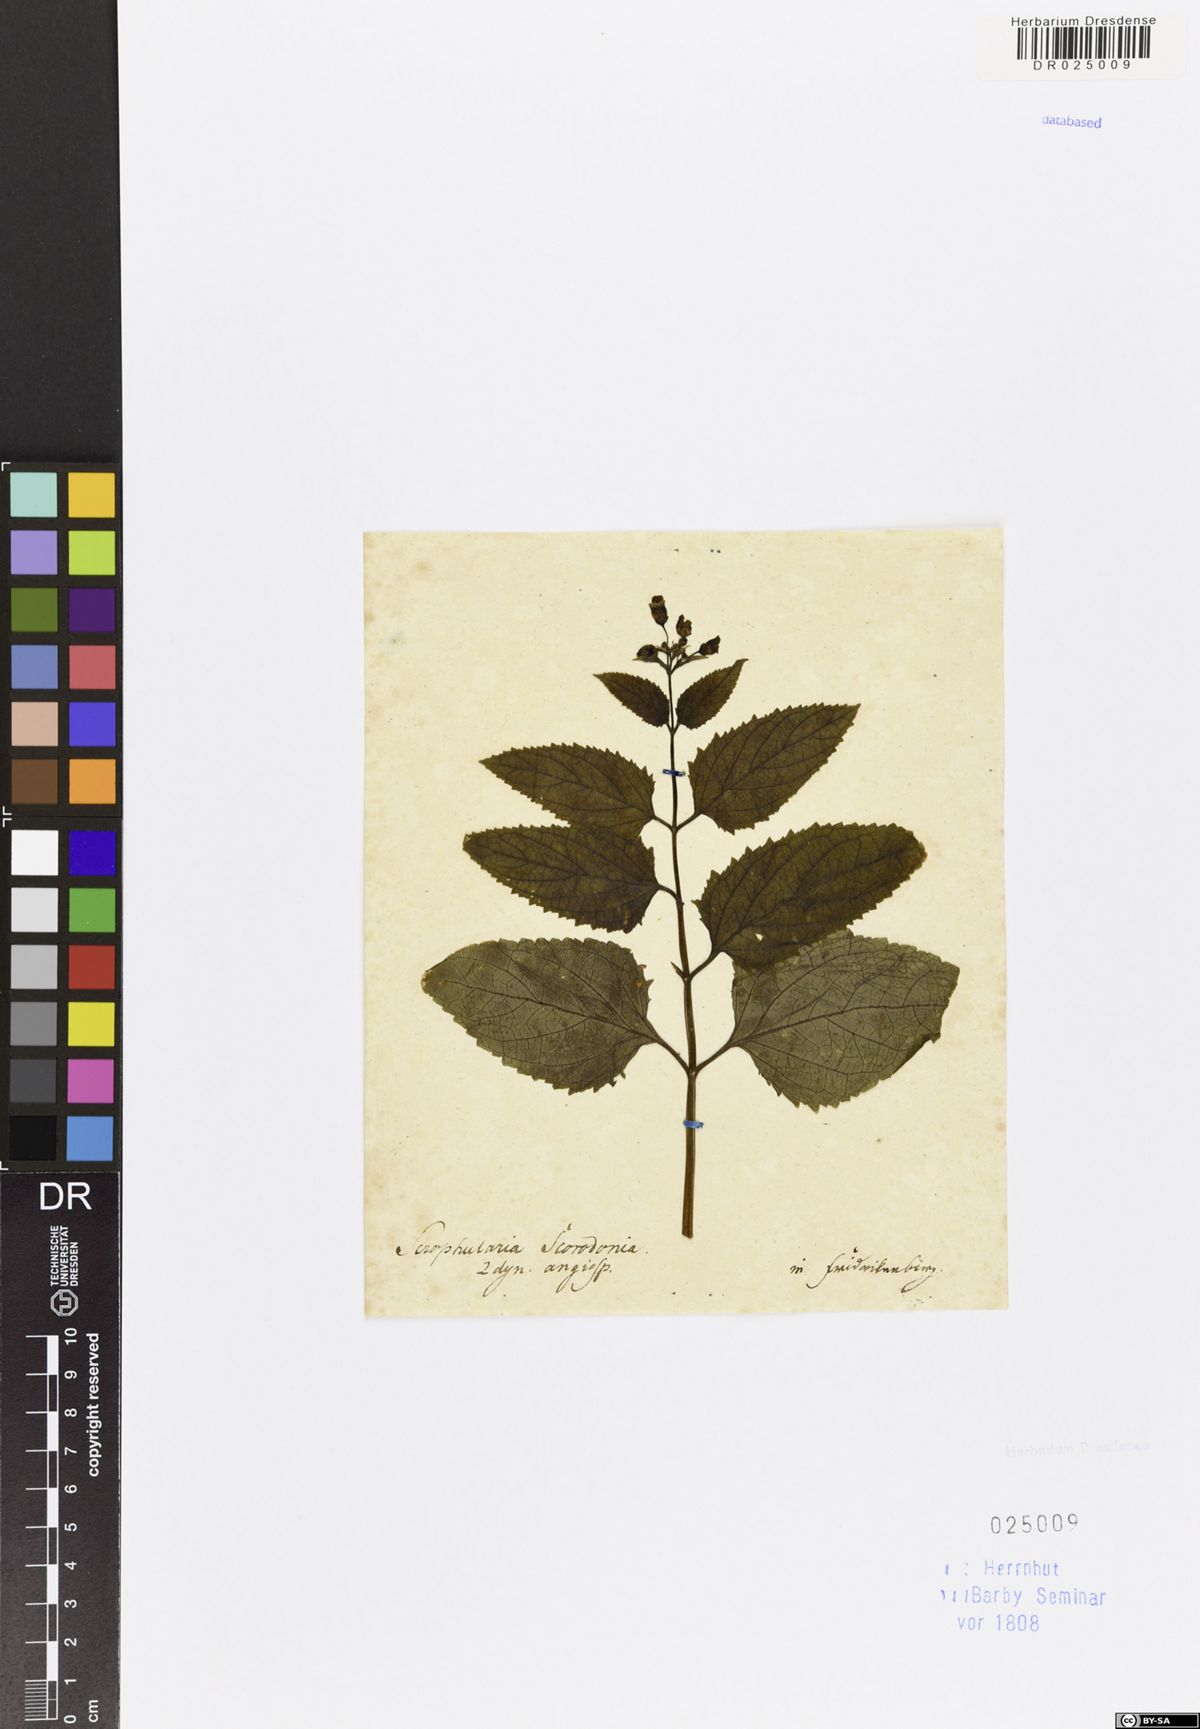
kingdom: Plantae
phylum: Tracheophyta
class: Magnoliopsida
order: Lamiales
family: Scrophulariaceae
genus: Scrophularia
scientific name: Scrophularia nodosa
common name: Common figwort
